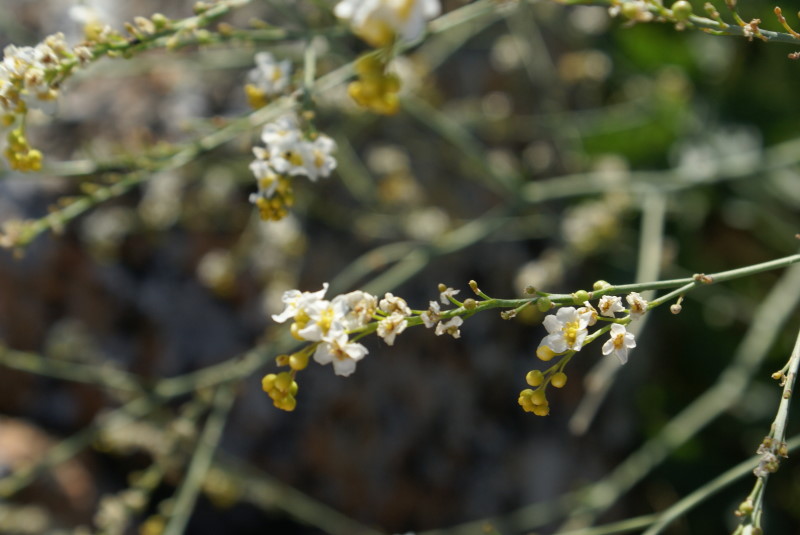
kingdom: Plantae
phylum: Tracheophyta
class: Magnoliopsida
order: Brassicales
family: Brassicaceae
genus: Crambe
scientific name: Crambe maritima
